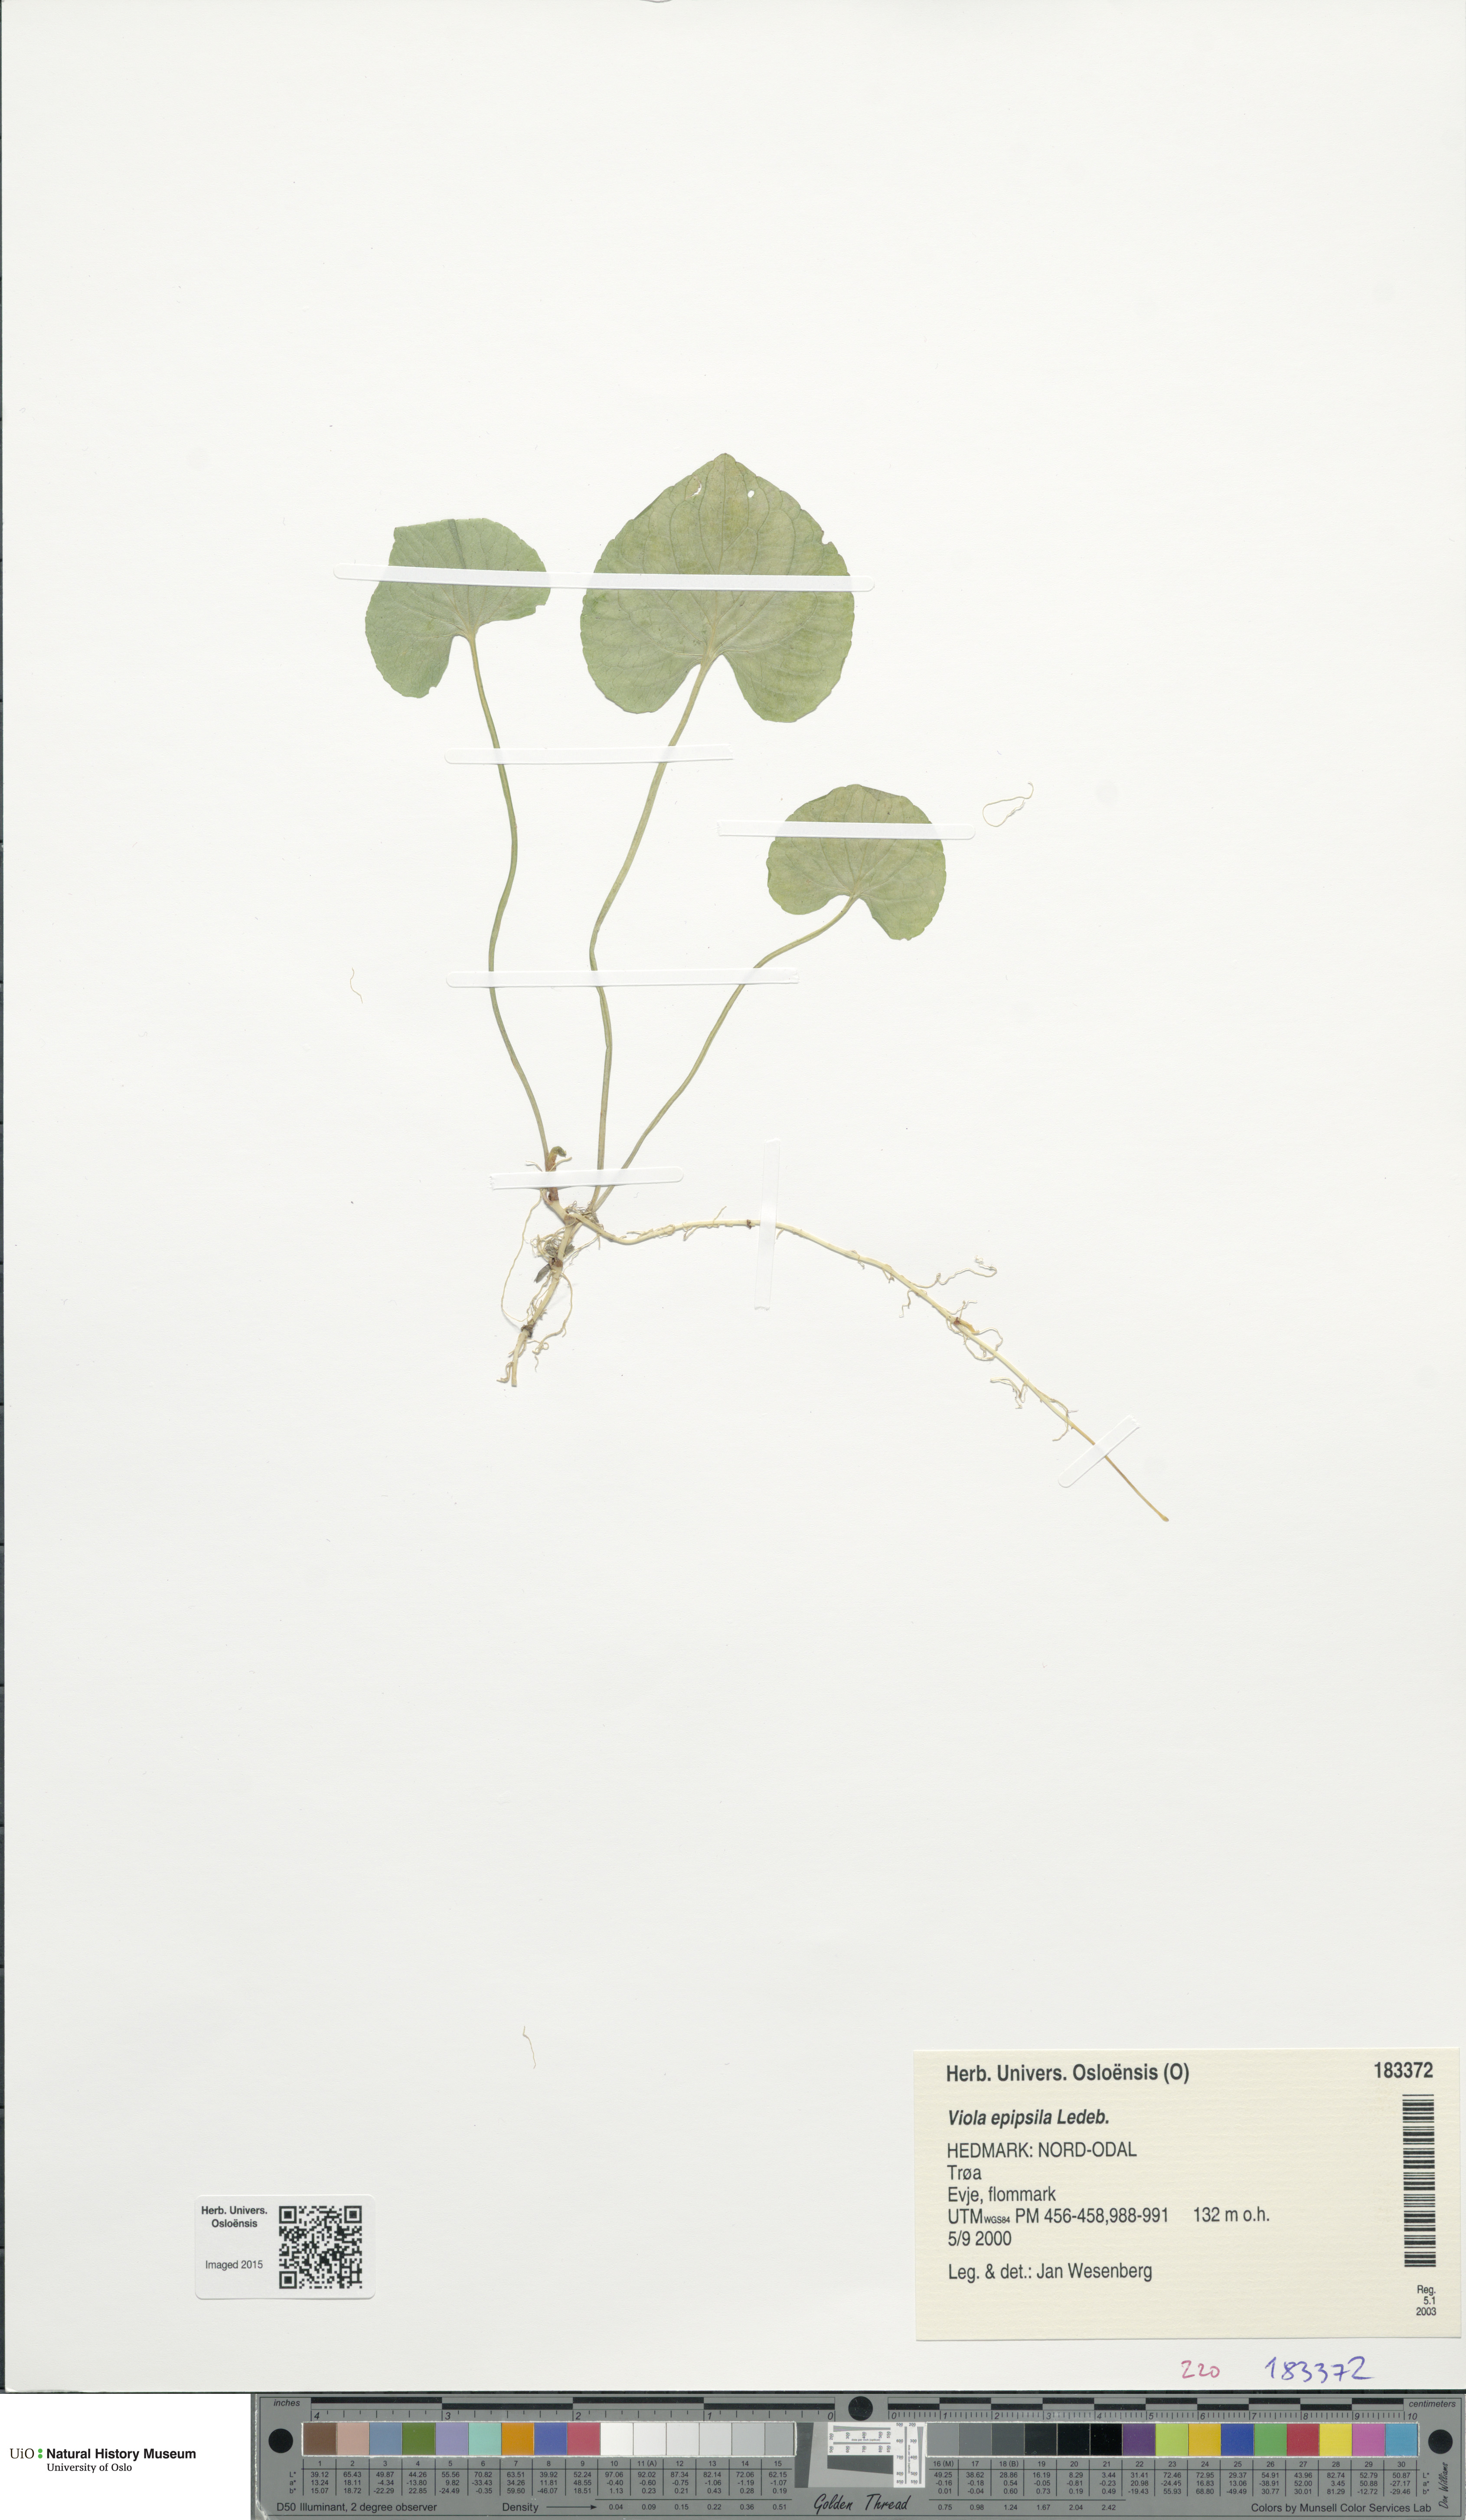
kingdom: Plantae
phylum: Tracheophyta
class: Magnoliopsida
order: Malpighiales
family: Violaceae
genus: Viola
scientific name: Viola epipsila
